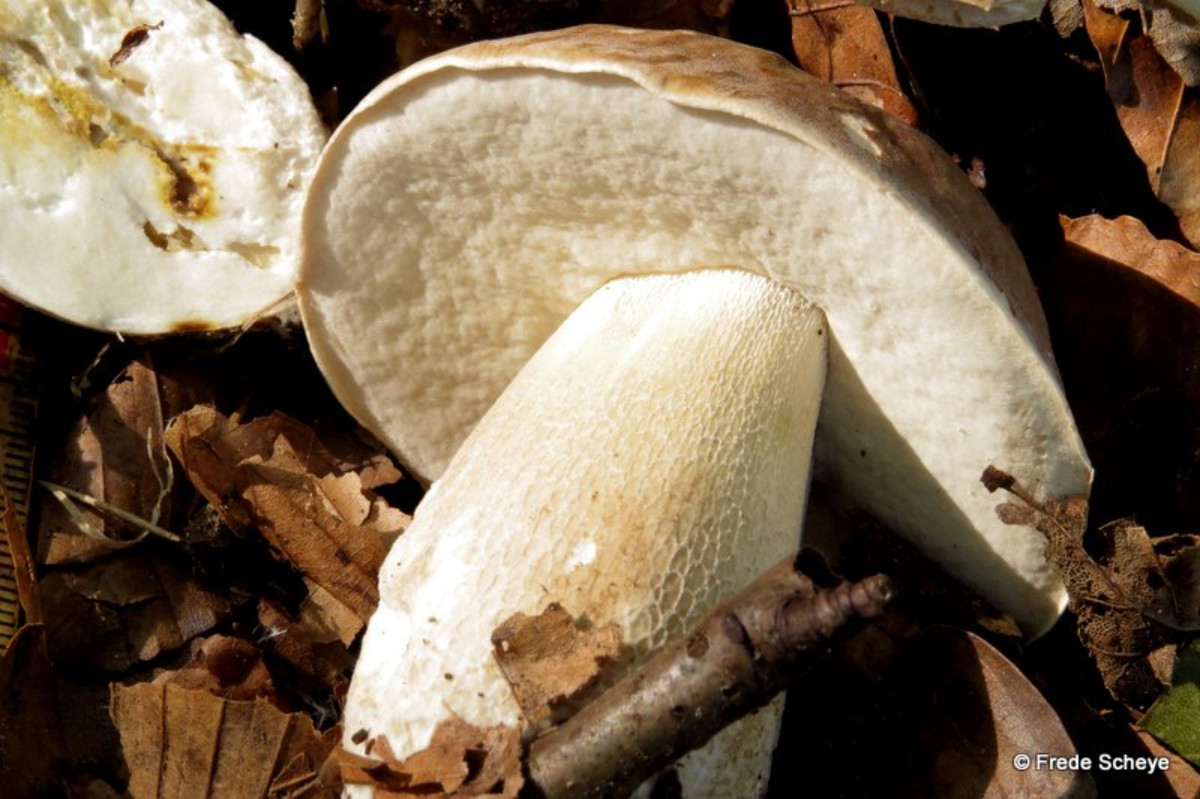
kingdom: Fungi
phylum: Basidiomycota
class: Agaricomycetes
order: Boletales
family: Boletaceae
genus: Boletus
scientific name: Boletus edulis
